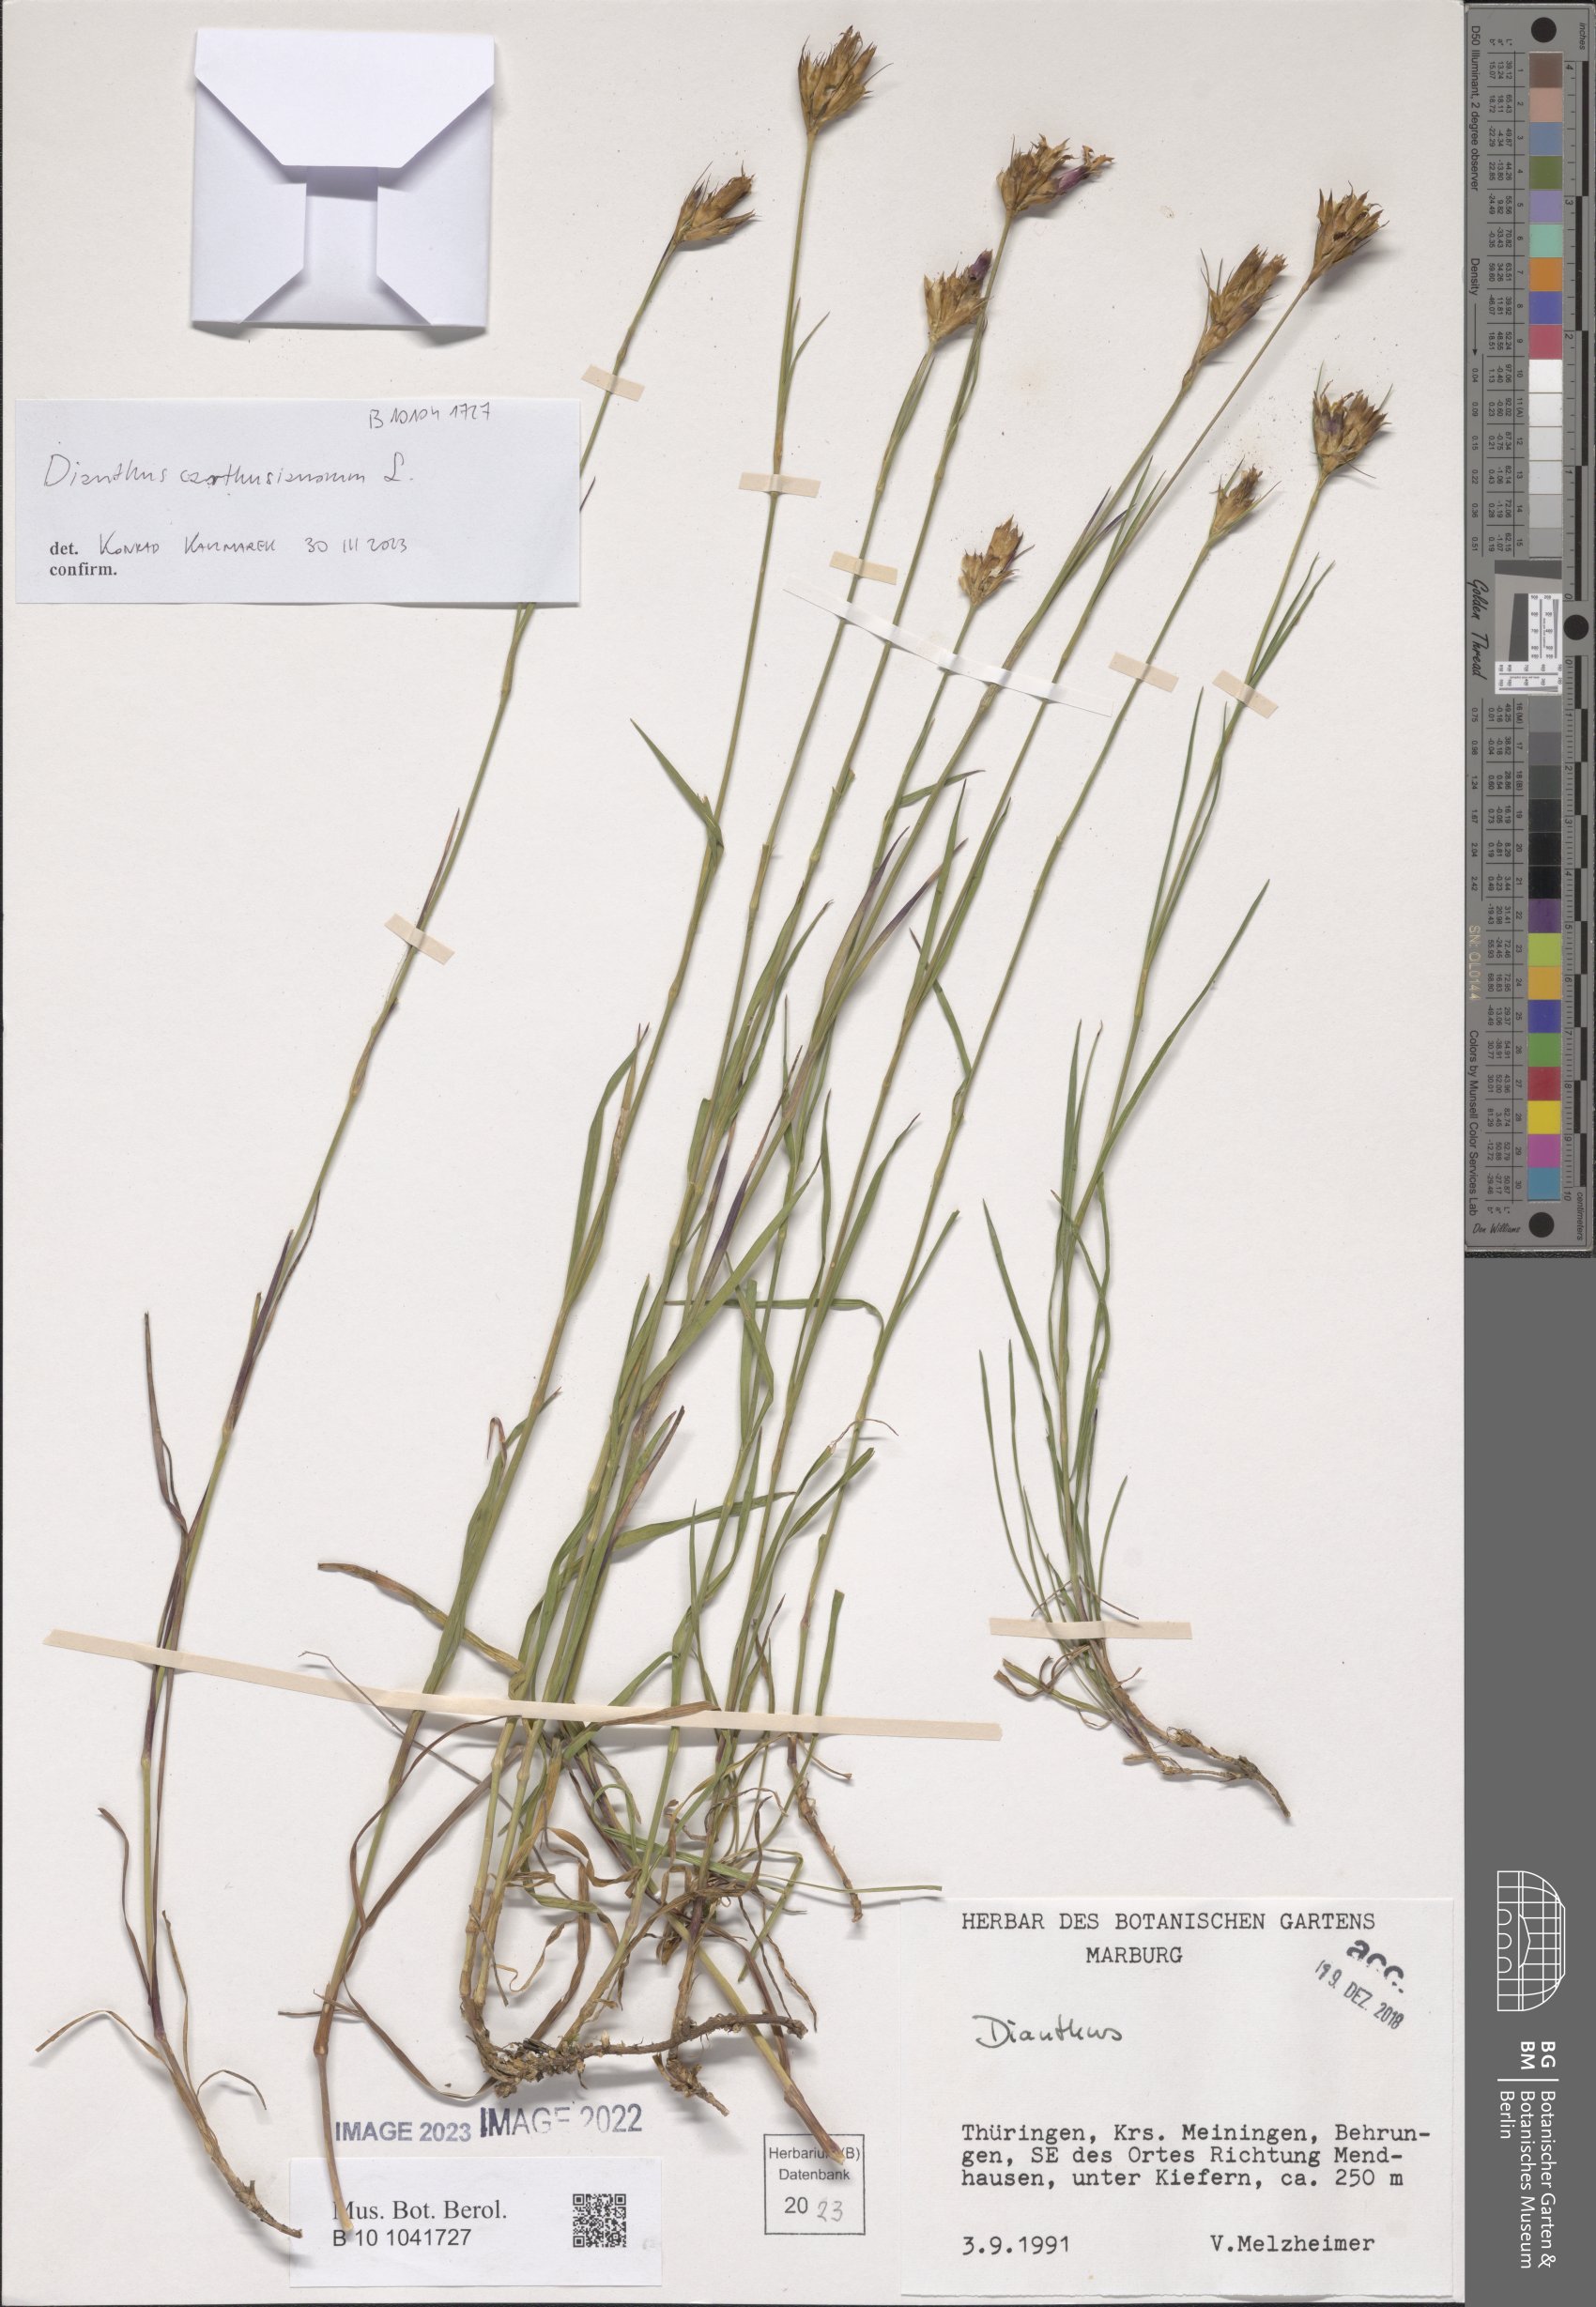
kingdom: Plantae
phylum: Tracheophyta
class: Magnoliopsida
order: Caryophyllales
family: Caryophyllaceae
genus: Dianthus
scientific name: Dianthus carthusianorum
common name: Carthusian pink
